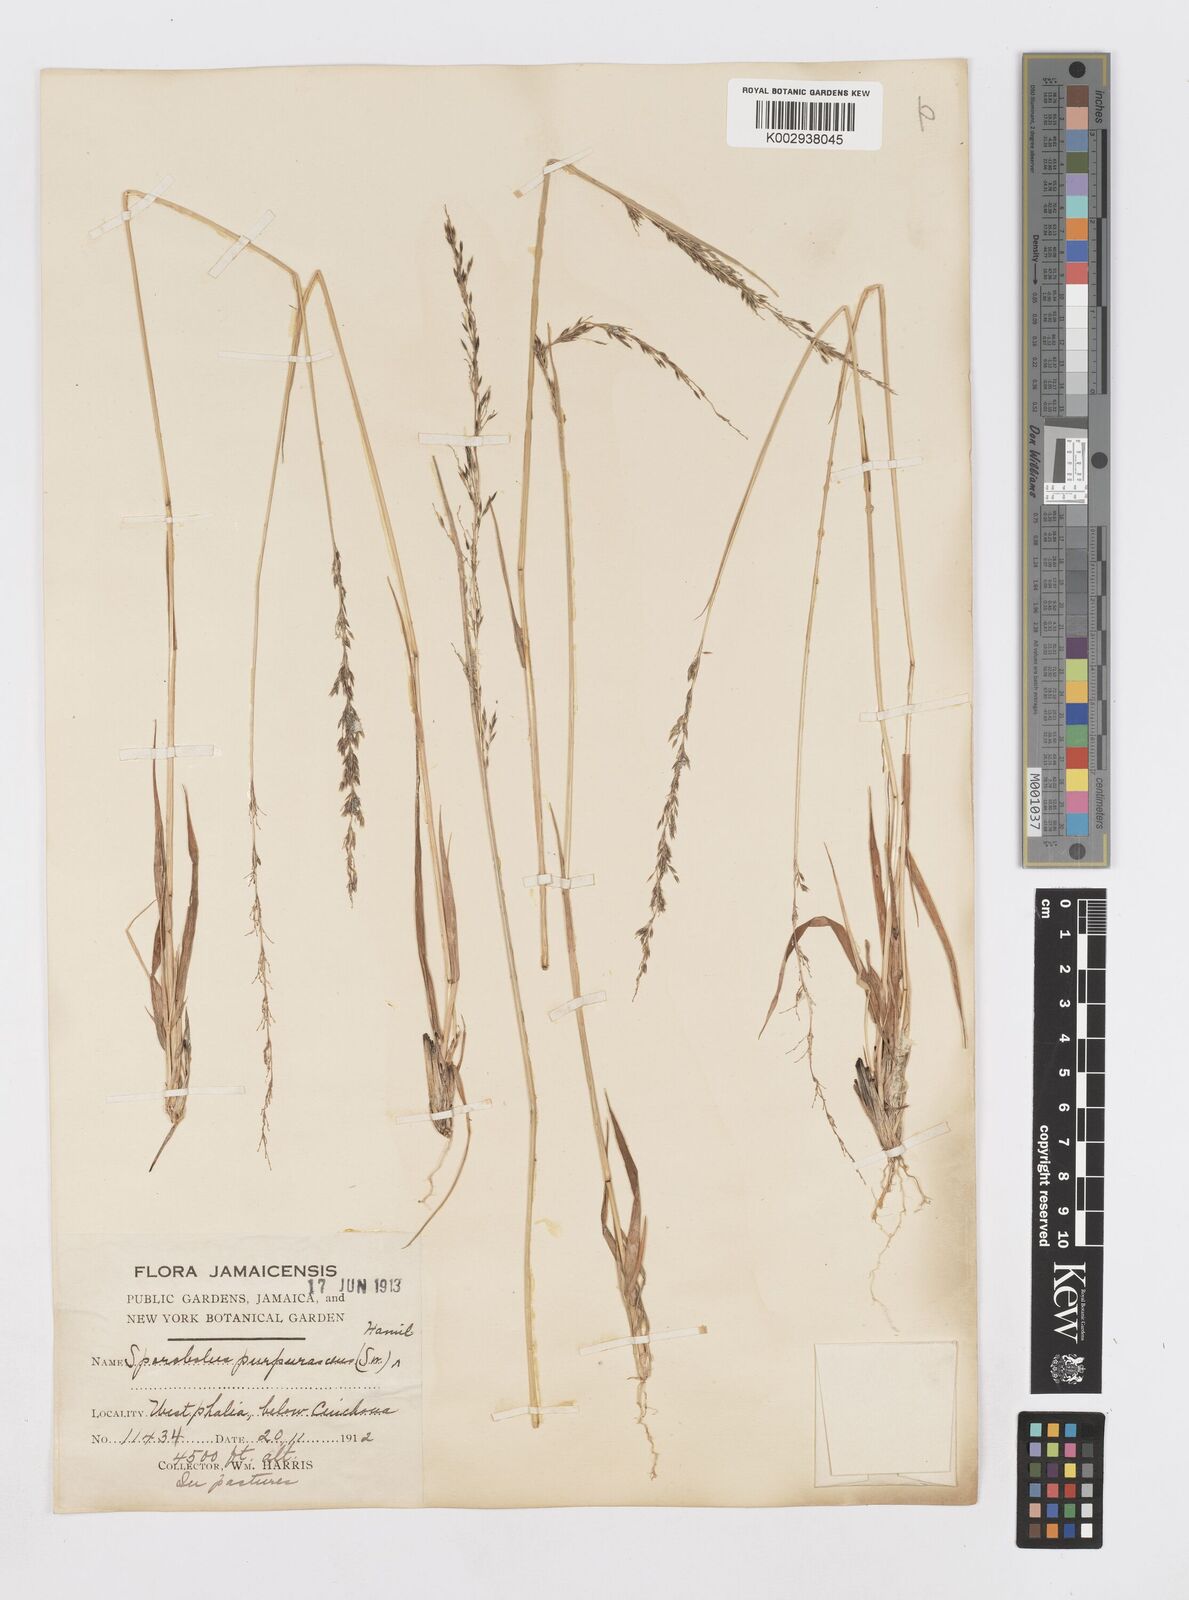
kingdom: Plantae
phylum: Tracheophyta
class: Liliopsida
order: Poales
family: Poaceae
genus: Sporobolus
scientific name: Sporobolus purpurascens
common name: Purple dropseed
